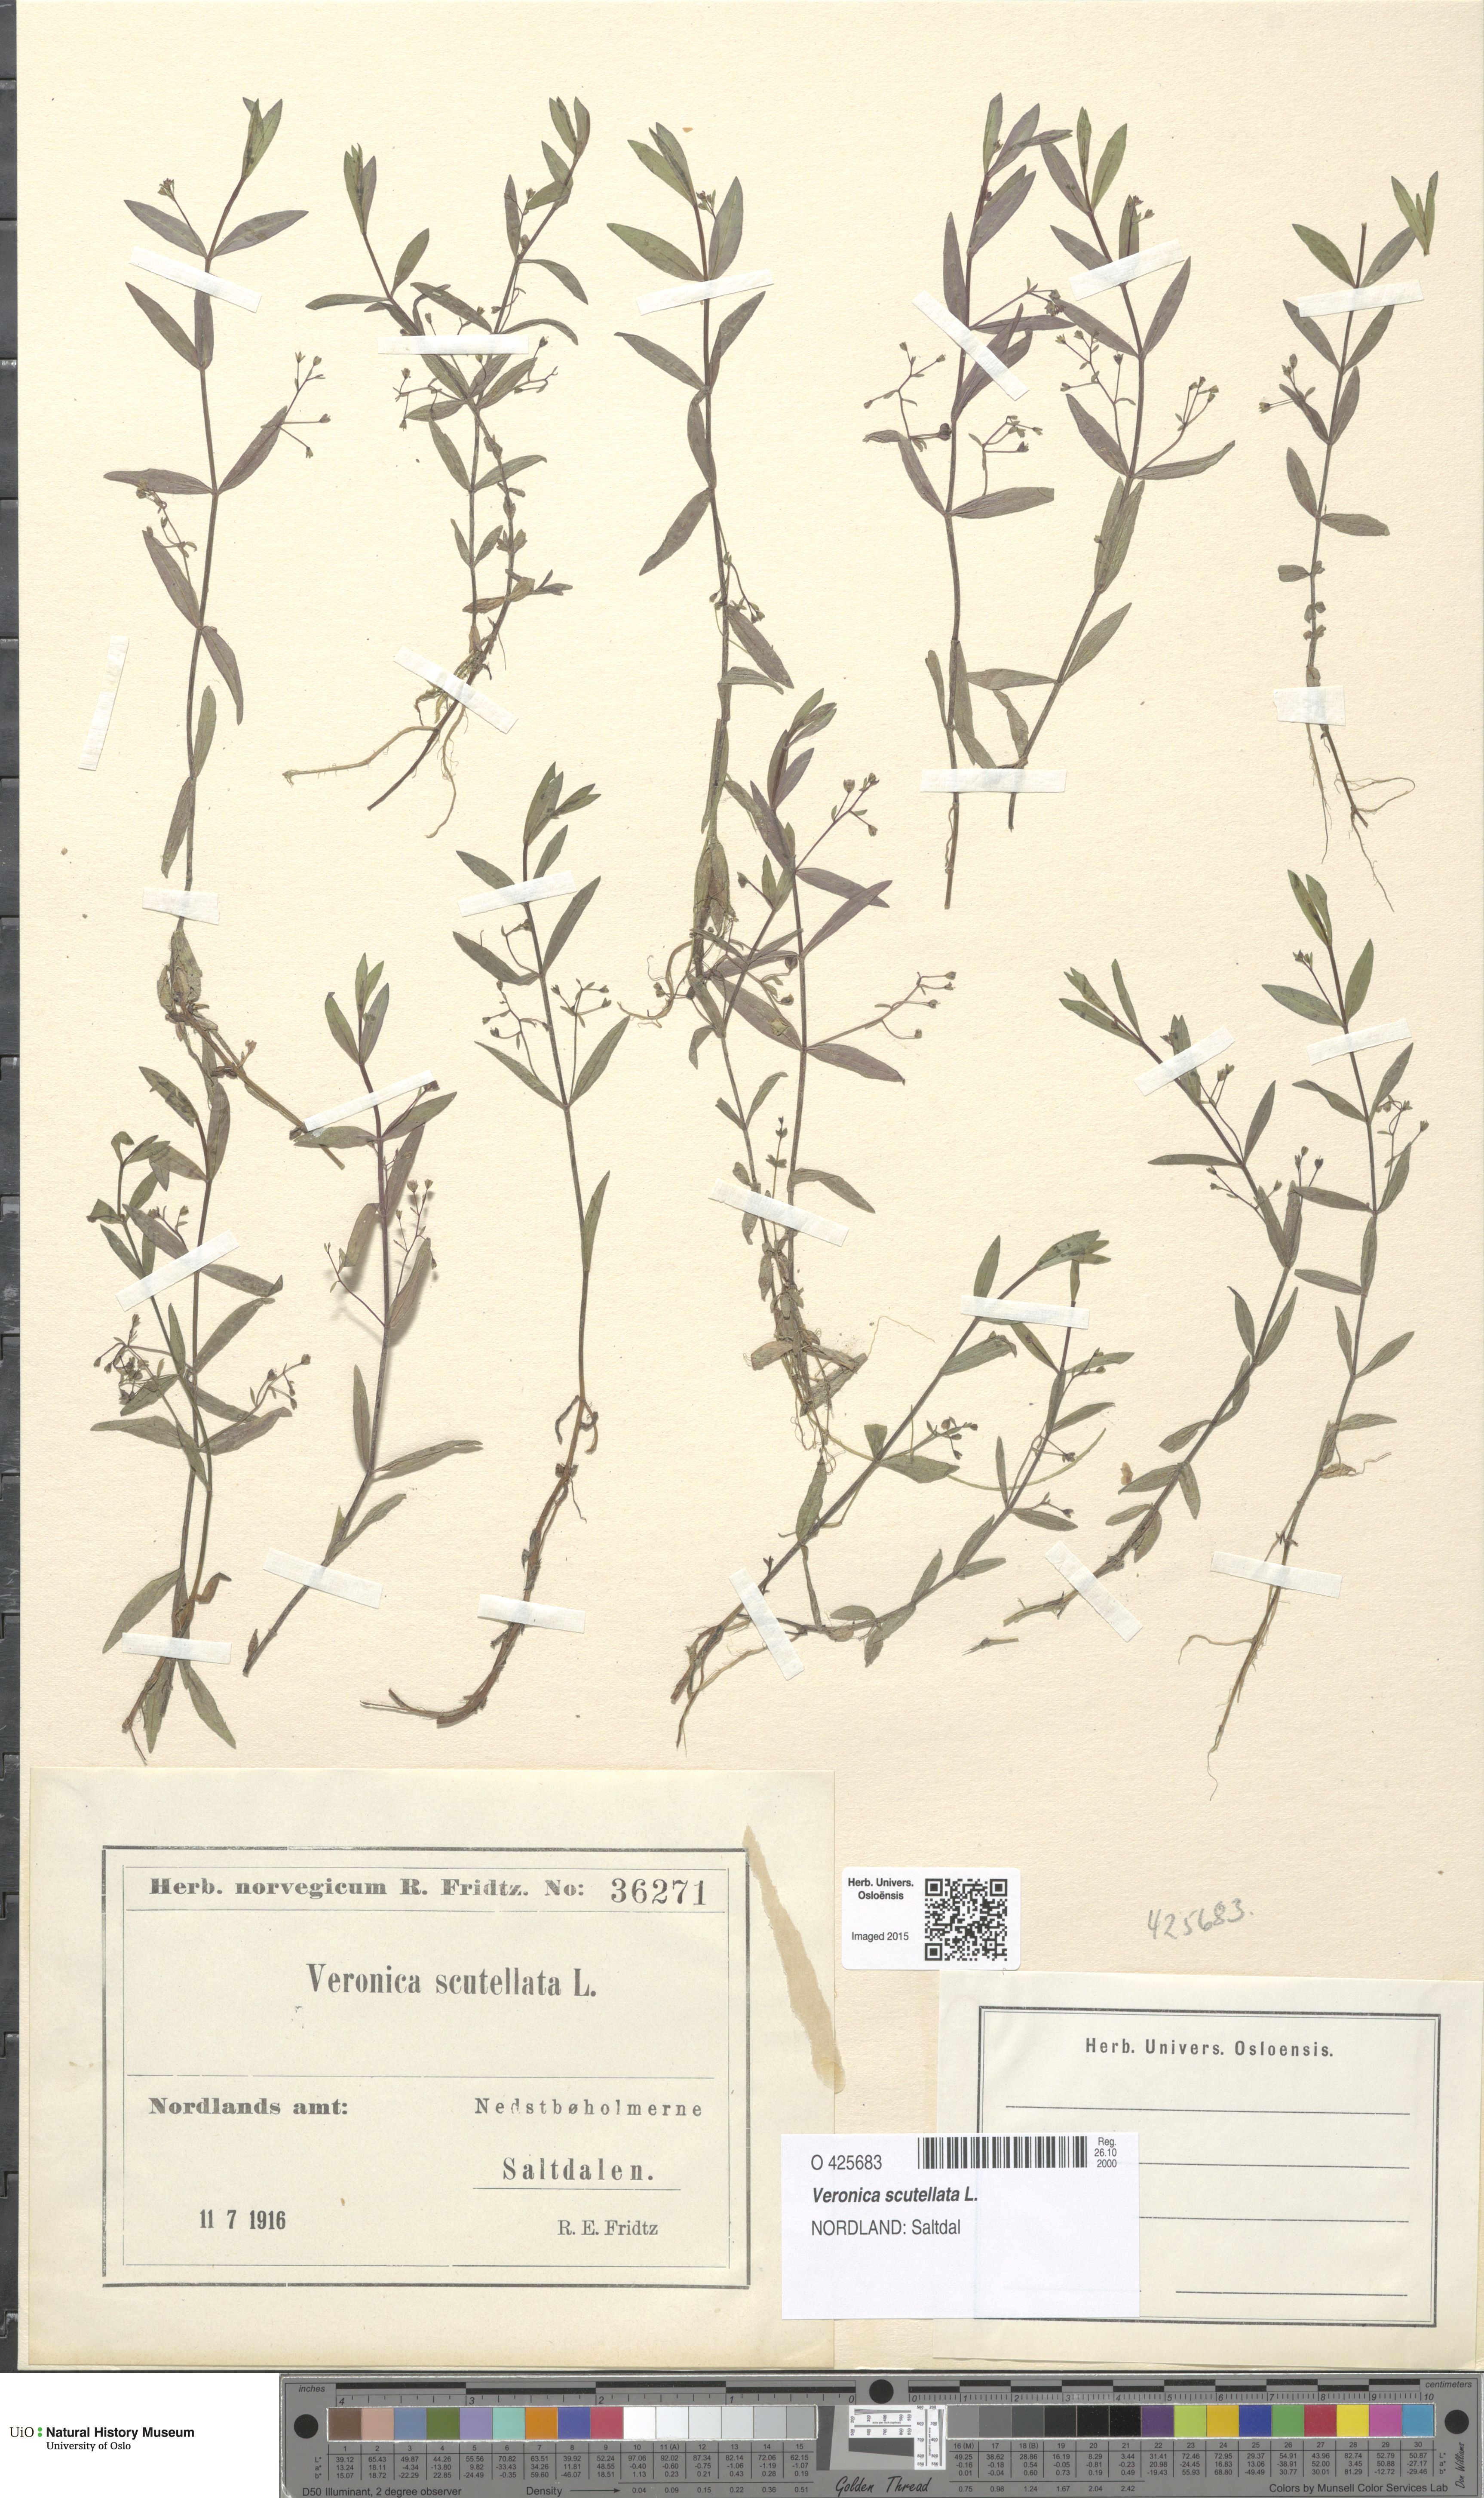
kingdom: Plantae
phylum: Tracheophyta
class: Magnoliopsida
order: Lamiales
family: Plantaginaceae
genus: Veronica
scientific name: Veronica scutellata
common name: Marsh speedwell
